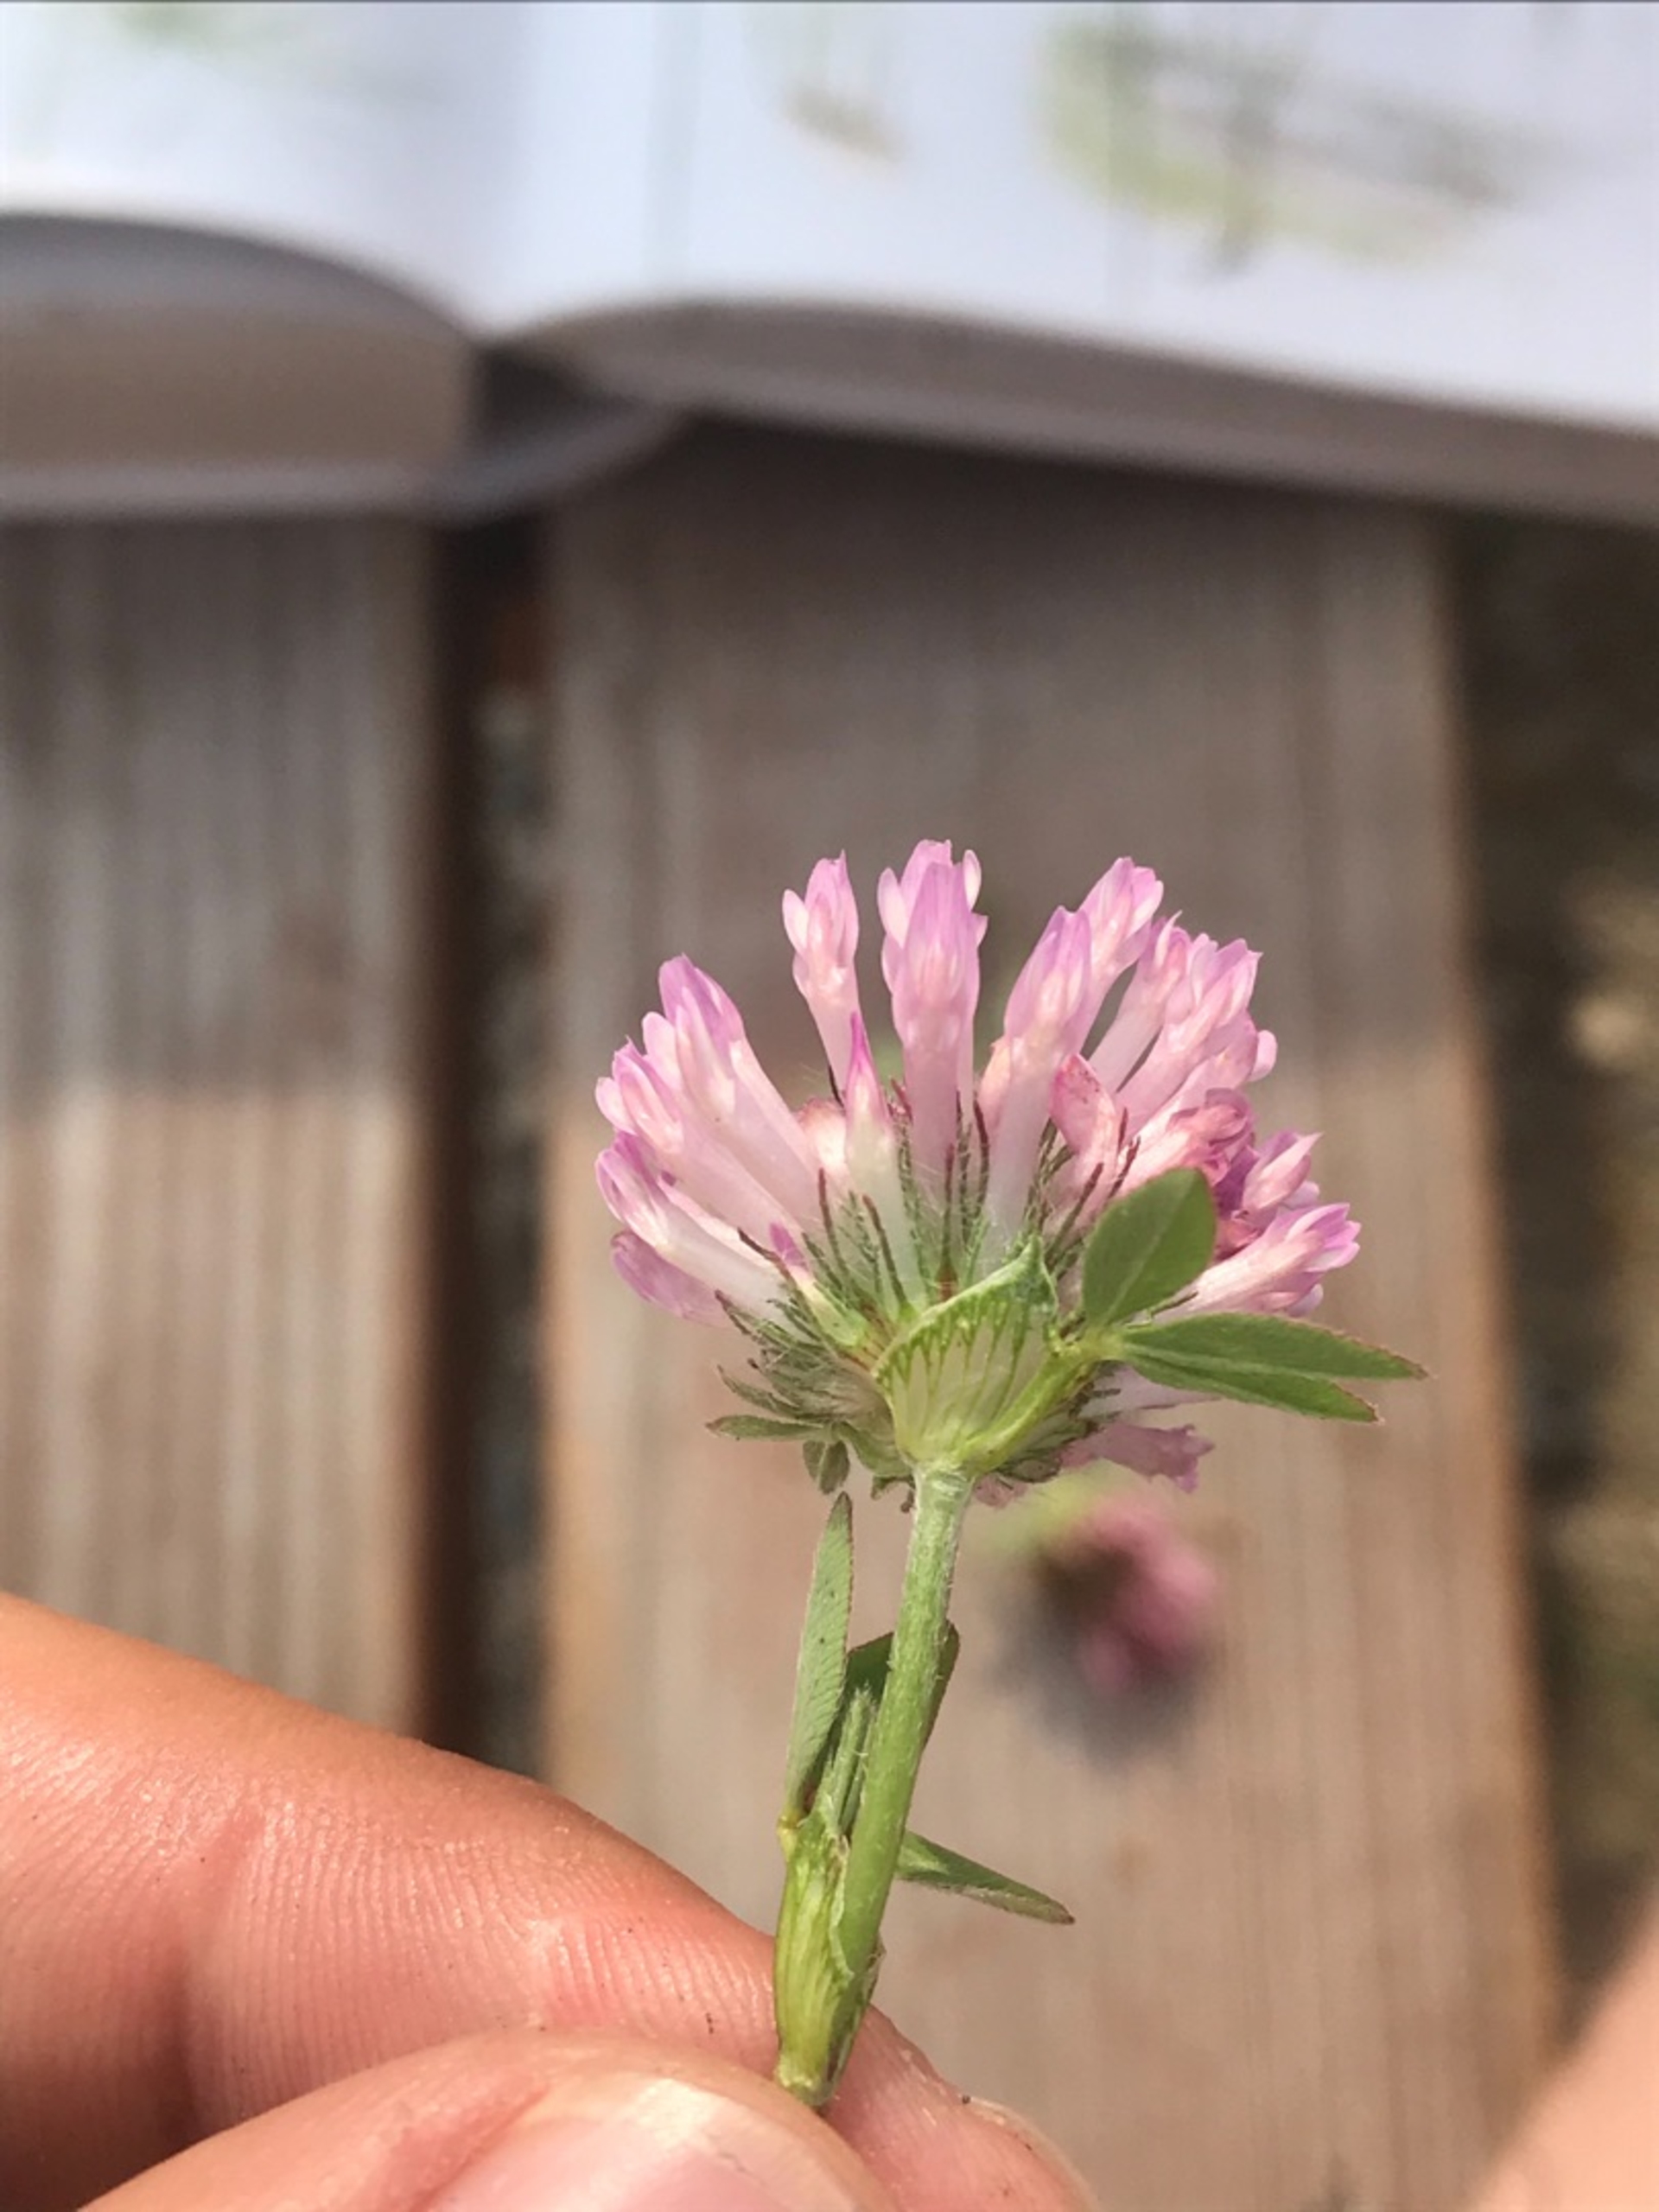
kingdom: Plantae
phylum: Tracheophyta
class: Magnoliopsida
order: Fabales
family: Fabaceae
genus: Trifolium
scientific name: Trifolium pratense
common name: Rød-kløver
